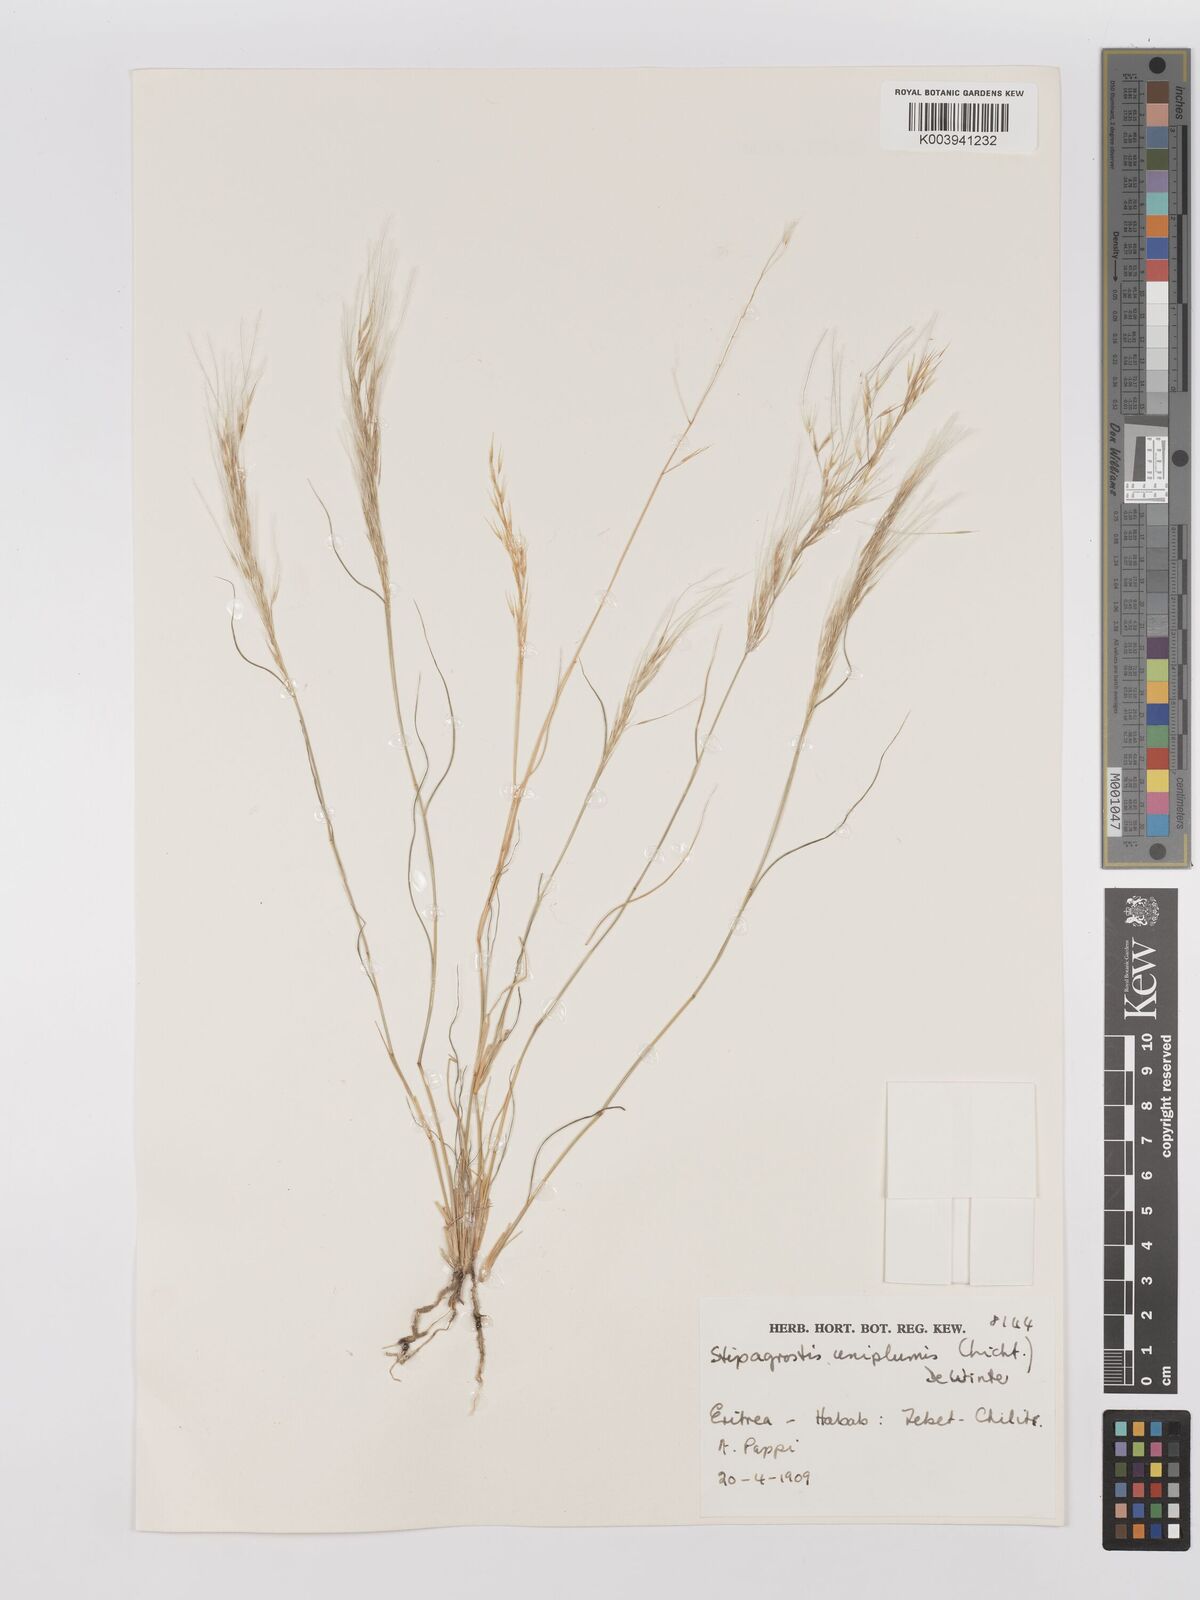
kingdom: Plantae
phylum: Tracheophyta
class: Liliopsida
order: Poales
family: Poaceae
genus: Stipagrostis
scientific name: Stipagrostis uniplumis
